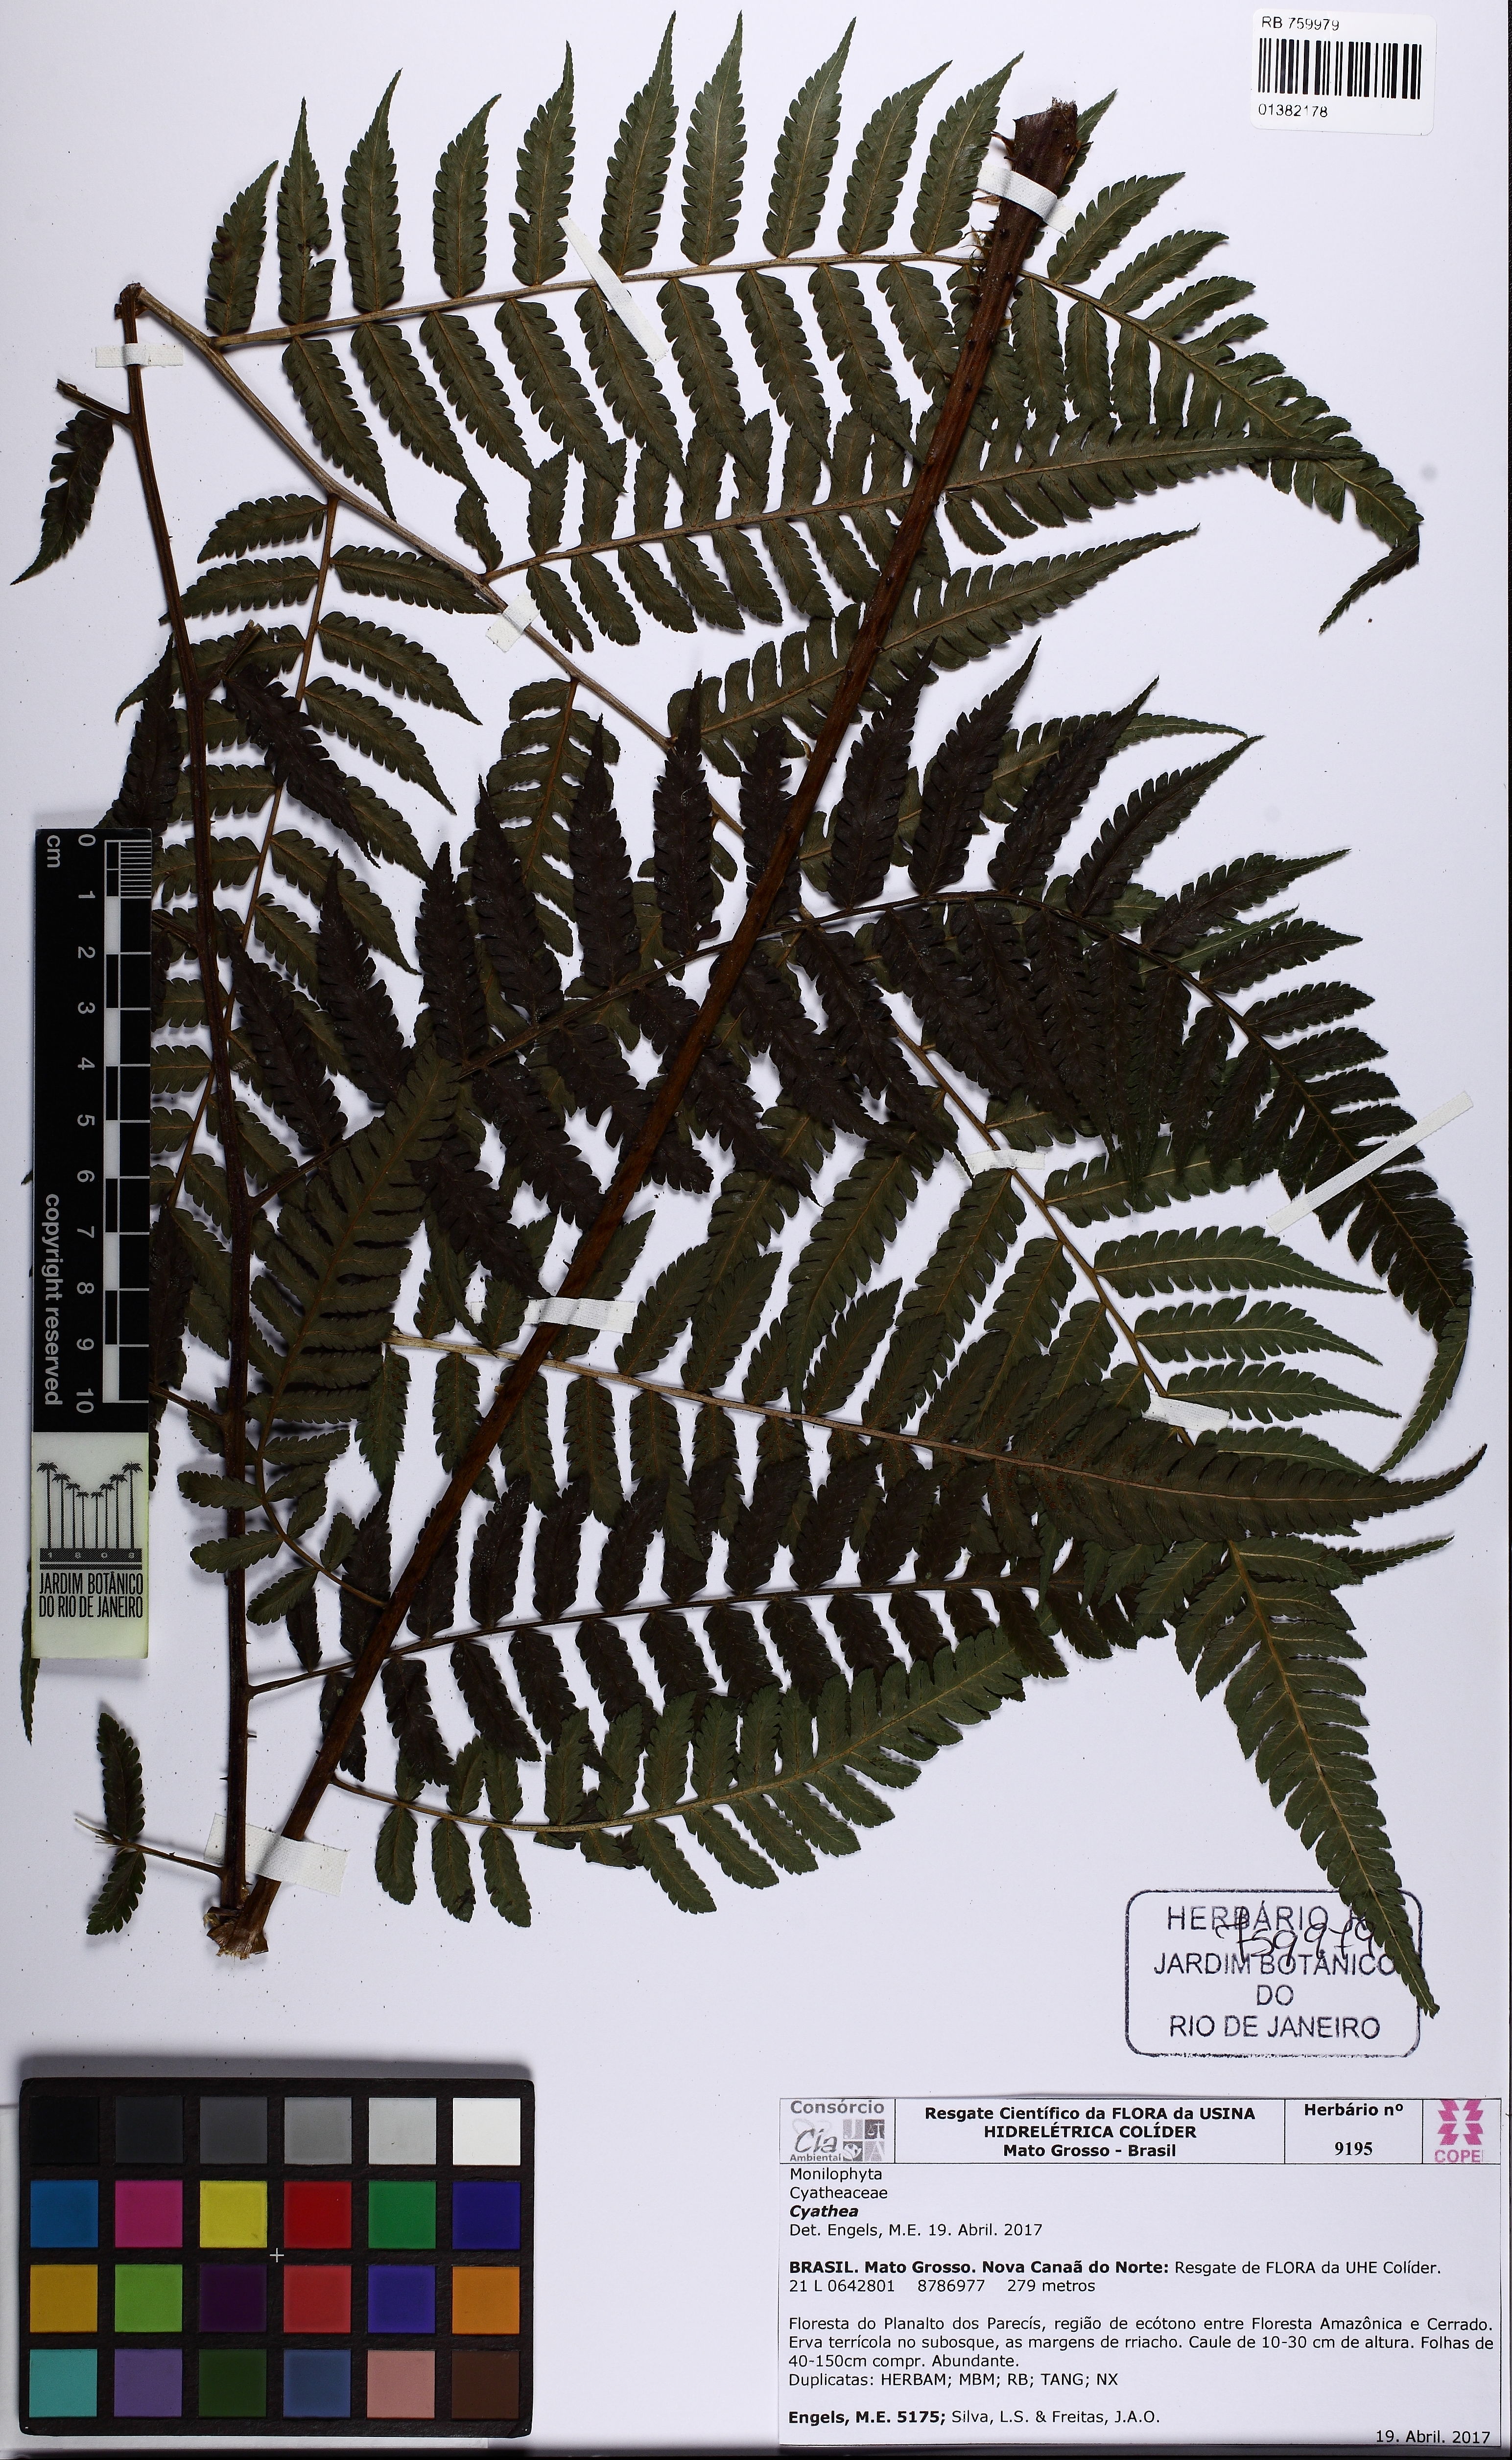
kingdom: Plantae
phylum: Tracheophyta
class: Polypodiopsida
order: Cyatheales
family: Cyatheaceae
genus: Cyathea
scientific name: Cyathea
